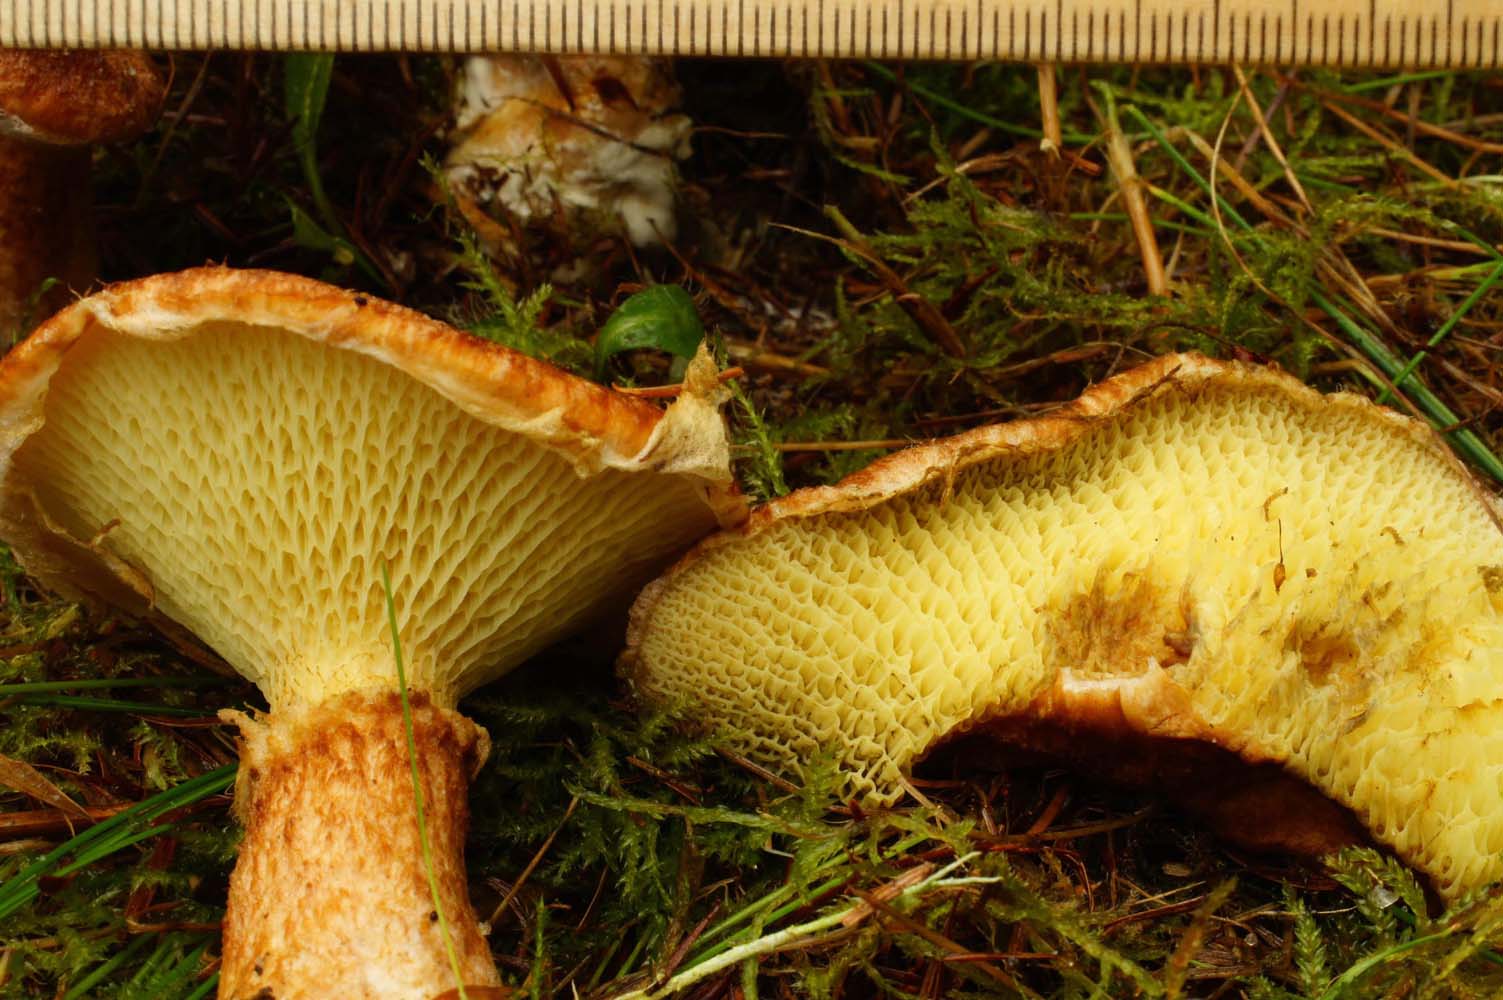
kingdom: Fungi
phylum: Basidiomycota
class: Agaricomycetes
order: Boletales
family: Suillaceae
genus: Suillus
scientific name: Suillus cavipes
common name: hulstokket slimrørhat
